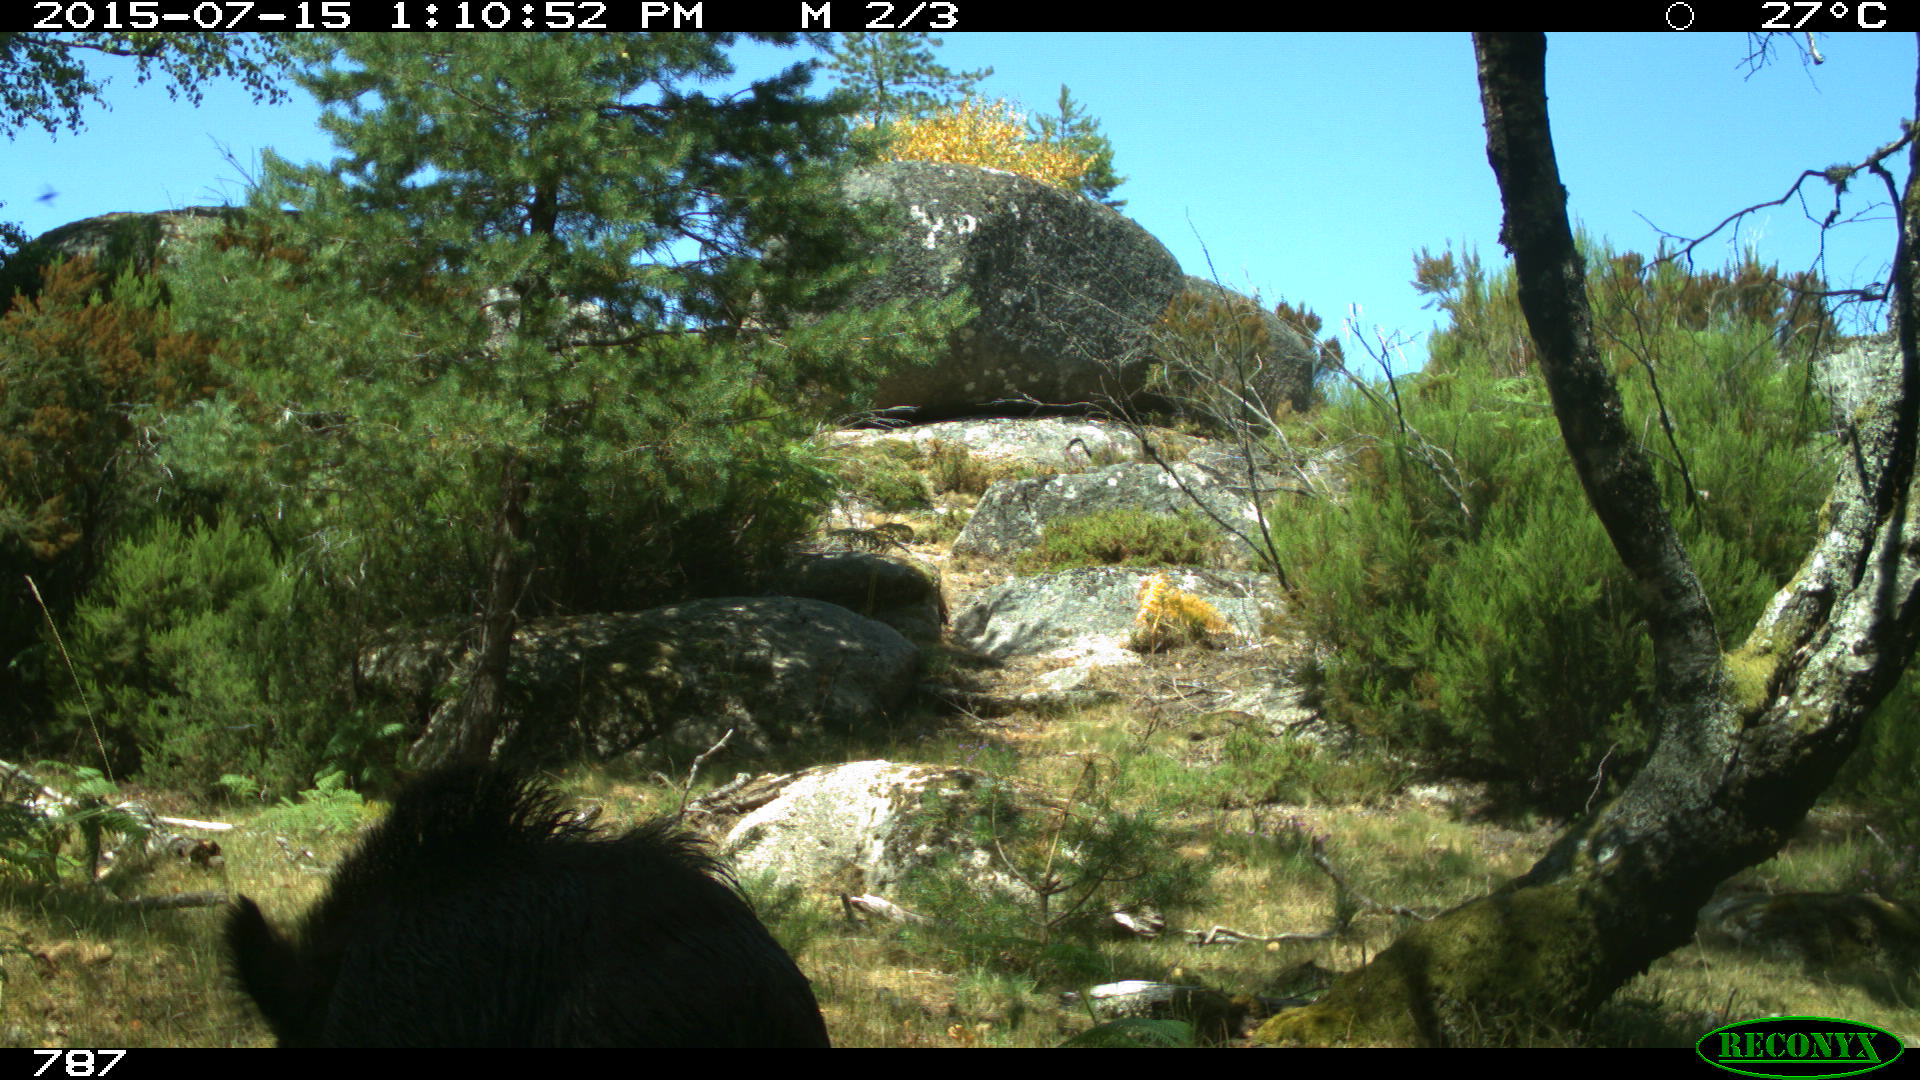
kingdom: Animalia
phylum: Chordata
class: Mammalia
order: Artiodactyla
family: Suidae
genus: Sus
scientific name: Sus scrofa
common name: Wild boar
